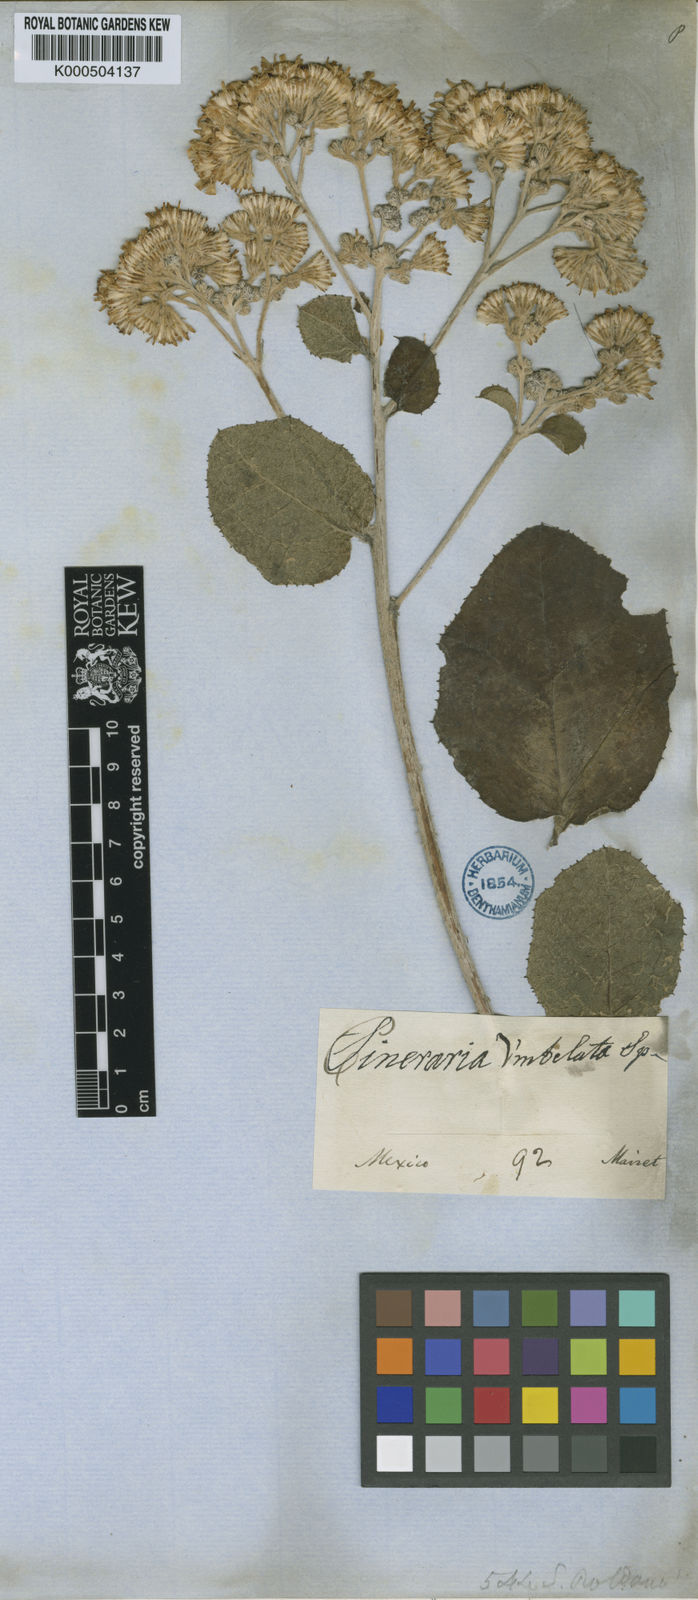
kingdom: Plantae
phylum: Tracheophyta
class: Magnoliopsida
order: Asterales
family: Asteraceae
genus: Roldana
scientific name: Roldana lobata
